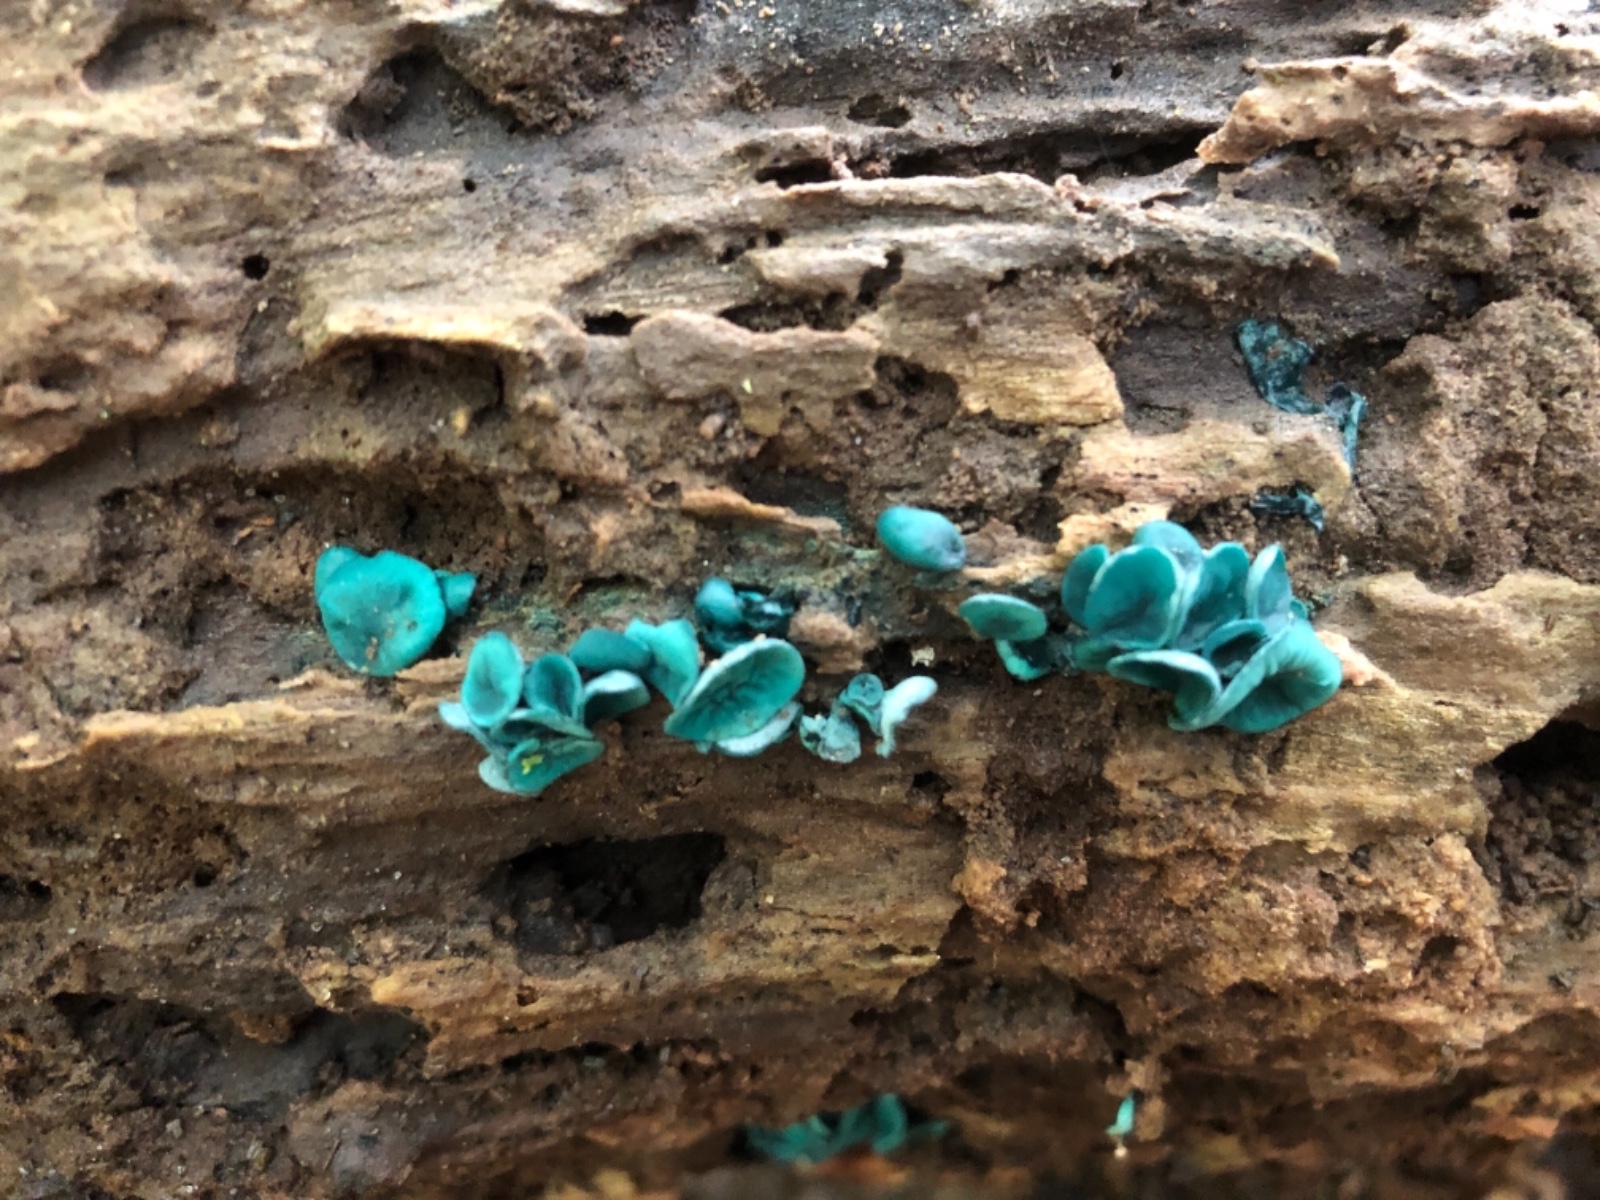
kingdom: Fungi
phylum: Ascomycota
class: Leotiomycetes
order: Helotiales
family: Chlorociboriaceae
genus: Chlorociboria
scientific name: Chlorociboria aeruginascens
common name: almindelig grønskive
